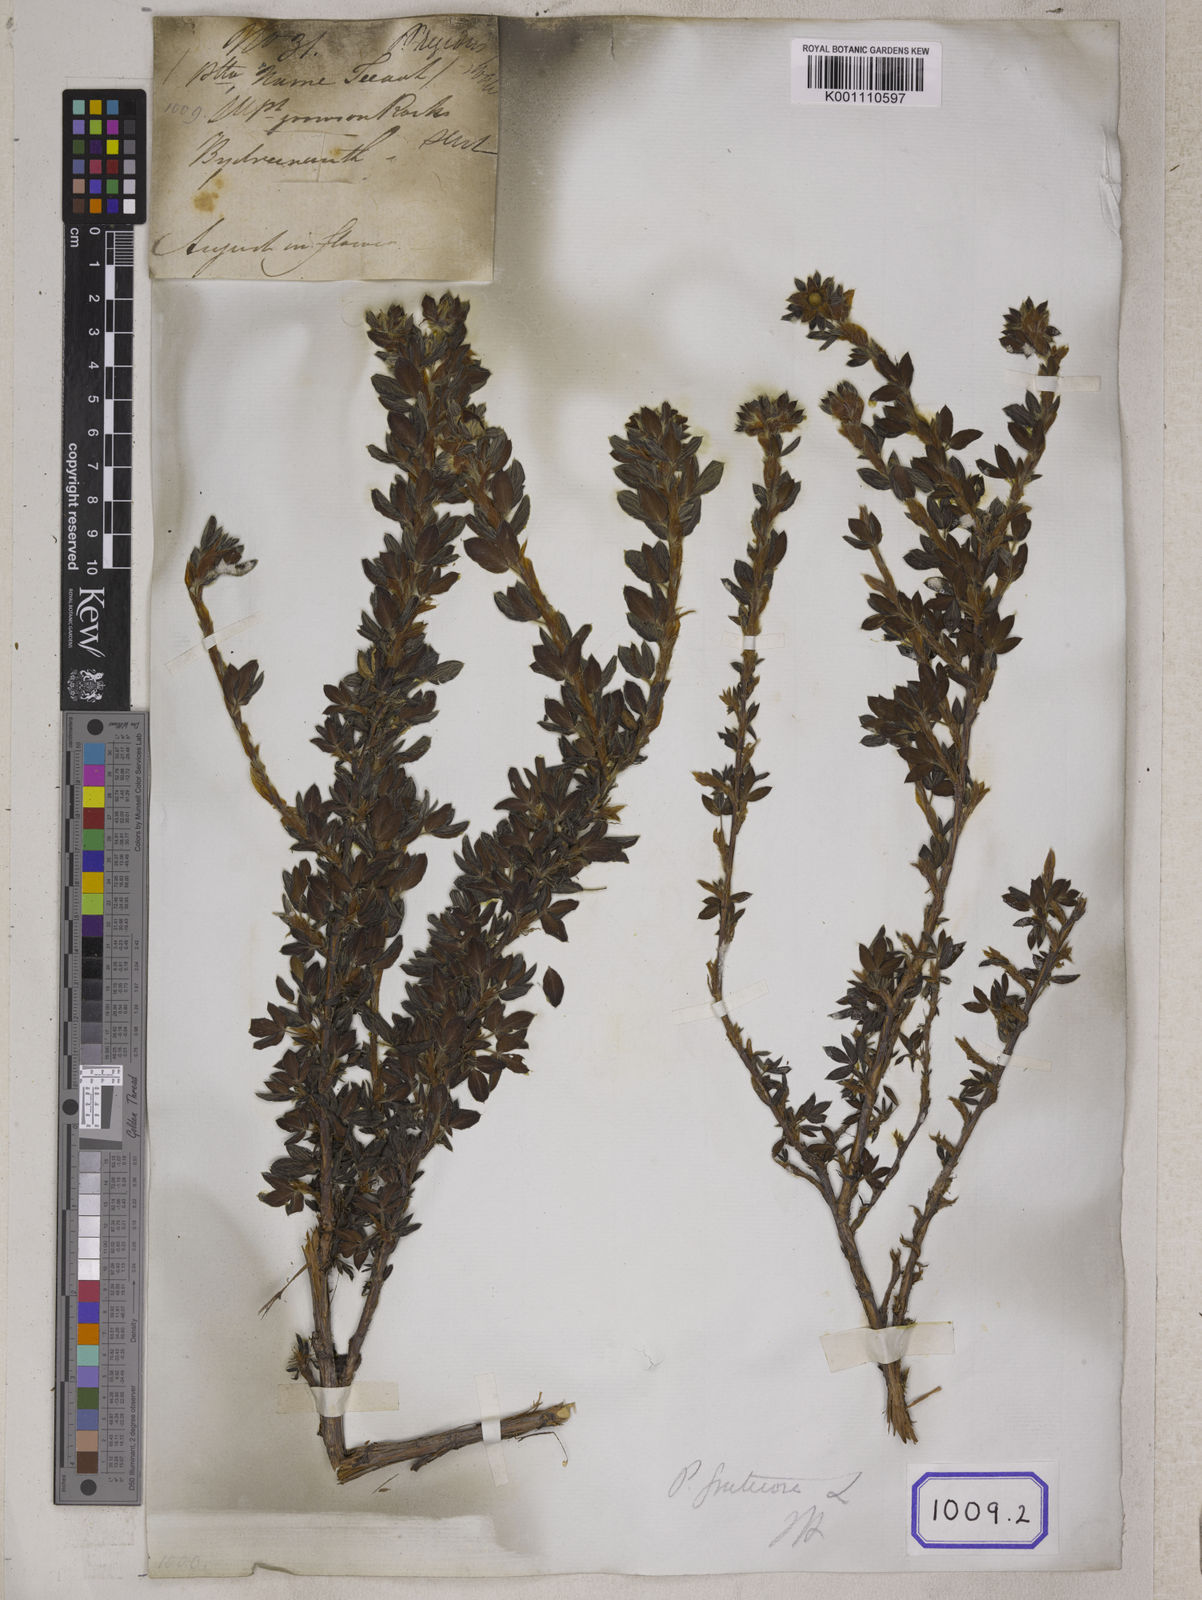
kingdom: Plantae
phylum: Tracheophyta
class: Magnoliopsida
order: Rosales
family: Rosaceae
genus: Potentilla
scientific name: Potentilla
